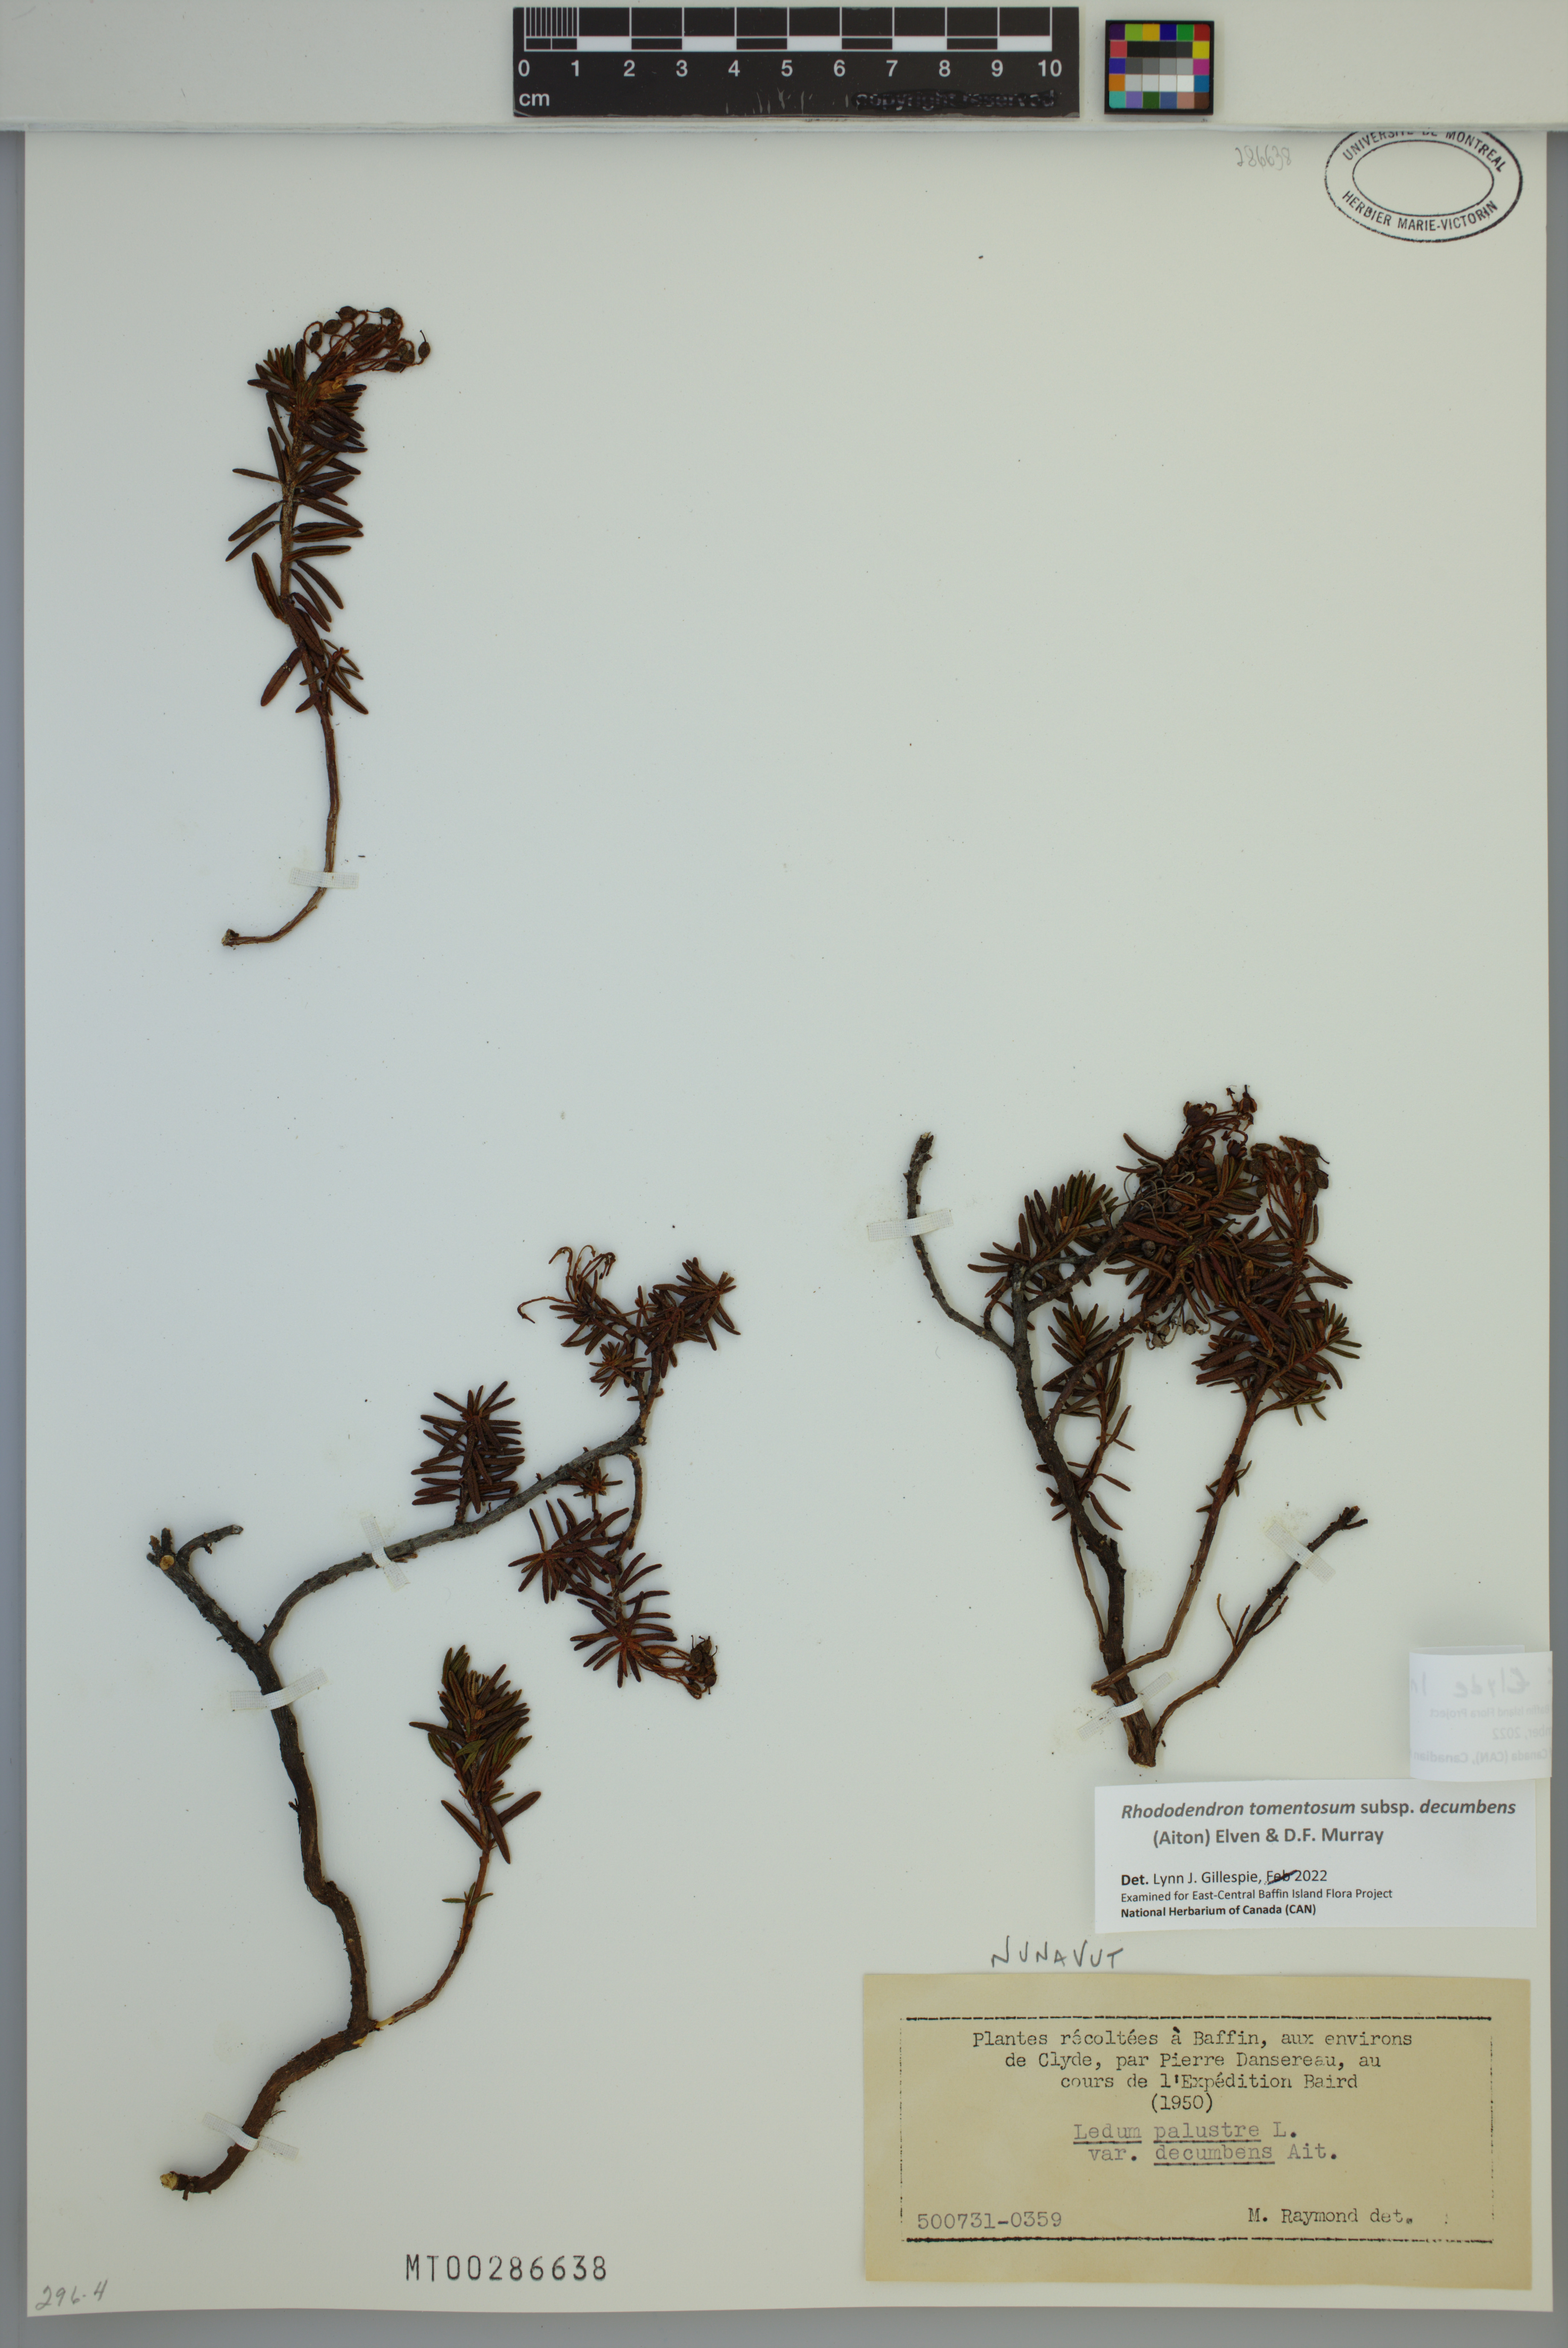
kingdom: Plantae
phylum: Tracheophyta
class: Magnoliopsida
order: Ericales
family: Ericaceae
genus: Rhododendron
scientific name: Rhododendron tomentosum
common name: Marsh labrador tea
